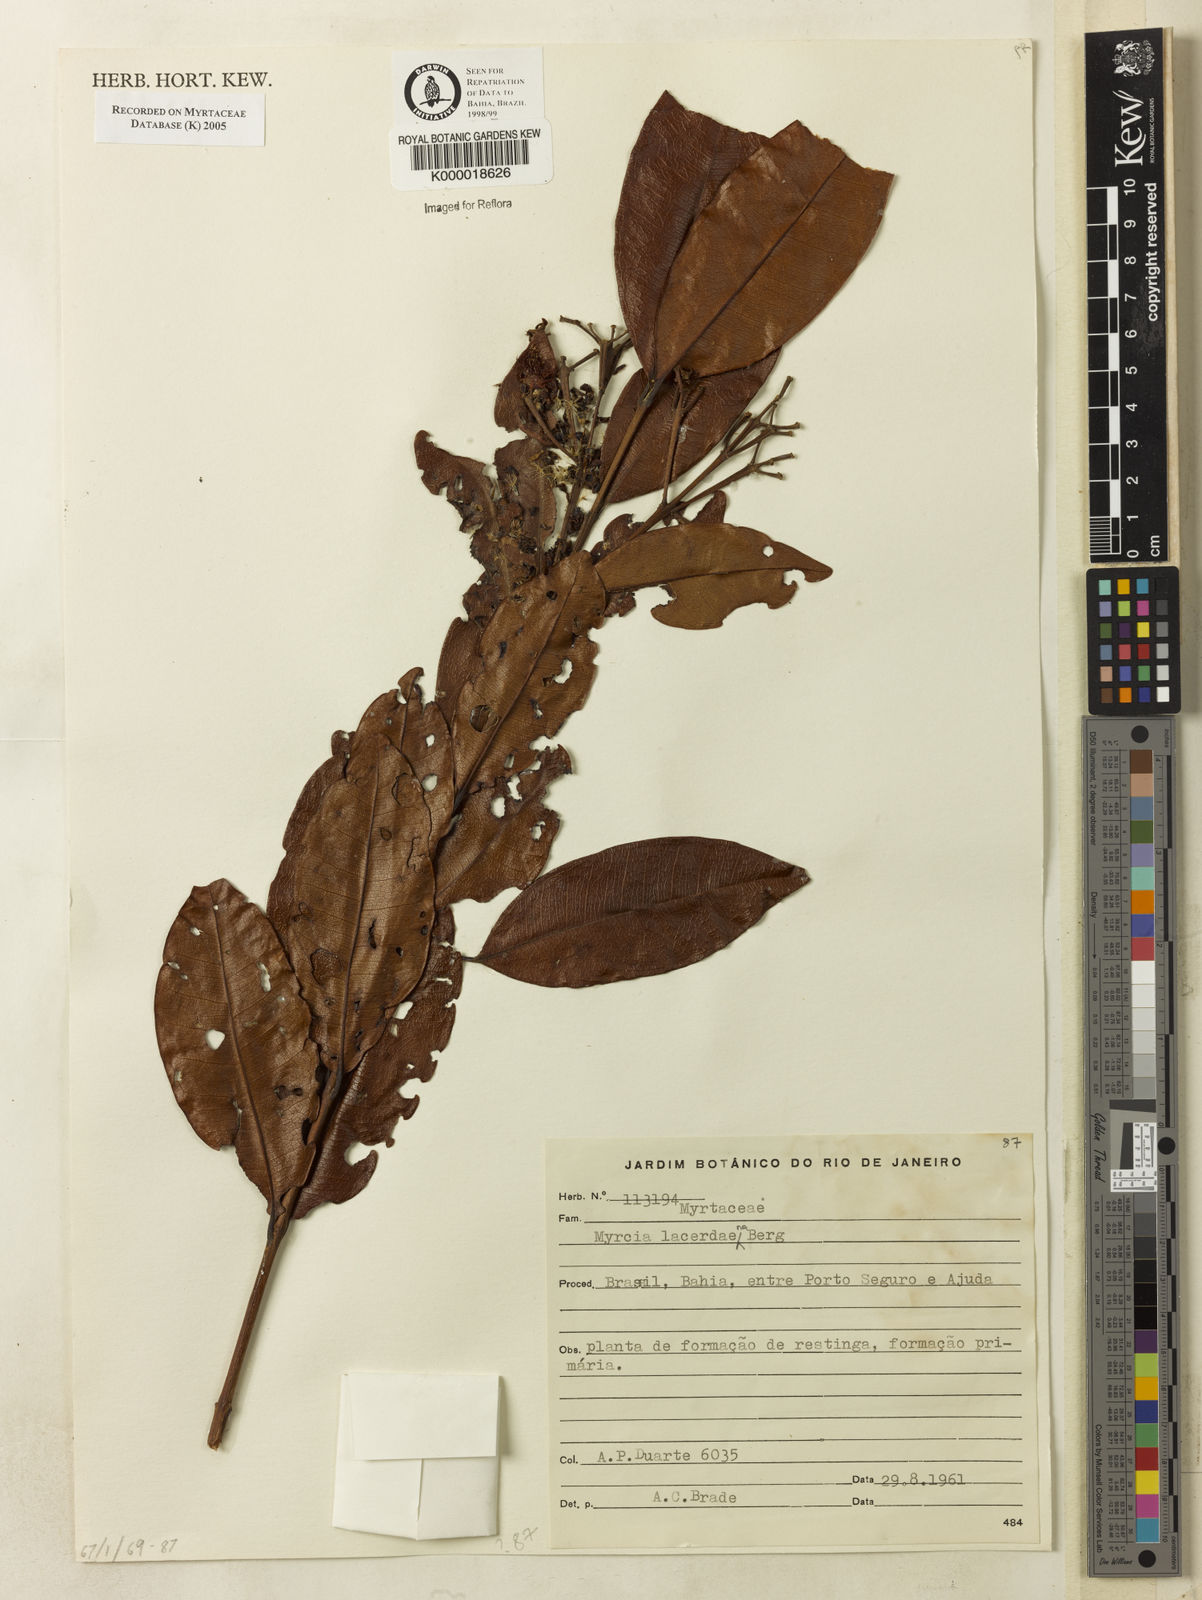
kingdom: Plantae
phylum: Tracheophyta
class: Magnoliopsida
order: Myrtales
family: Myrtaceae
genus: Myrcia
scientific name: Myrcia lacerdaeana
